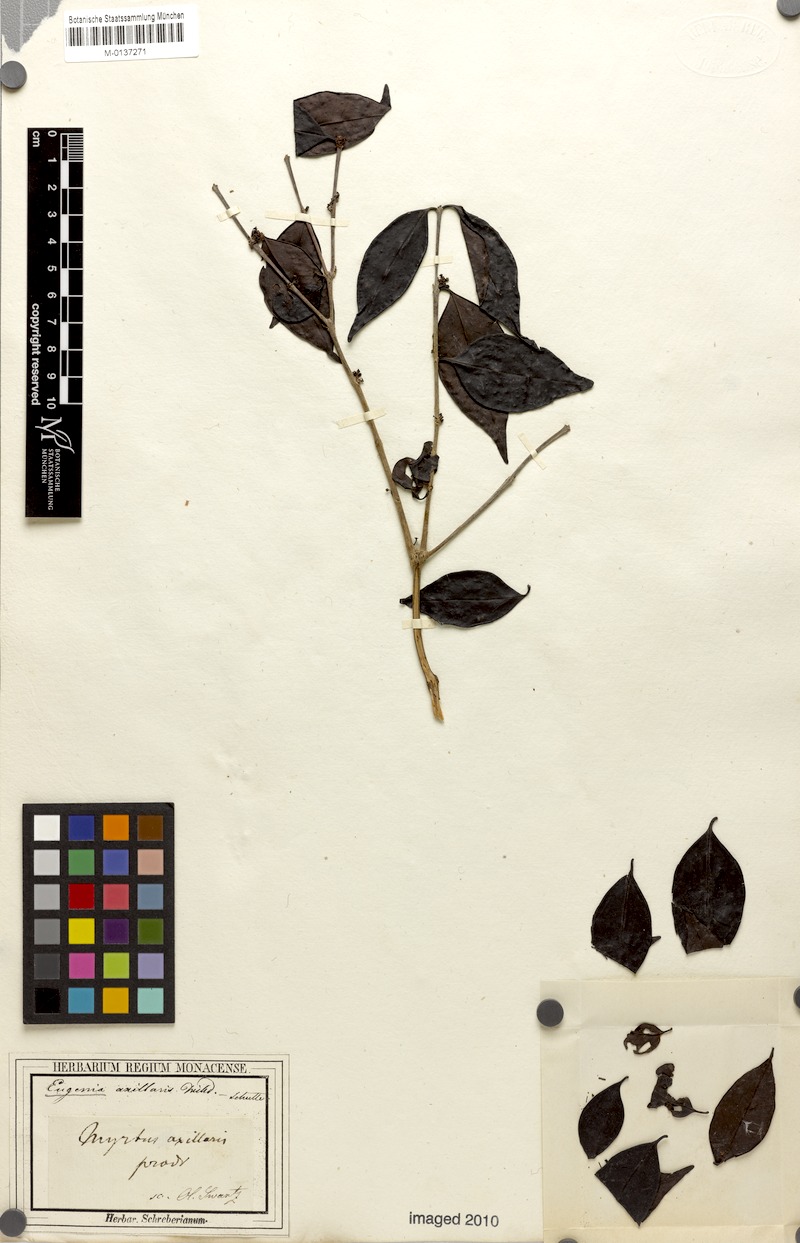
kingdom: Plantae
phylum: Tracheophyta
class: Magnoliopsida
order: Myrtales
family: Myrtaceae
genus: Eugenia
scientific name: Eugenia axillaris
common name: Choaky berry
